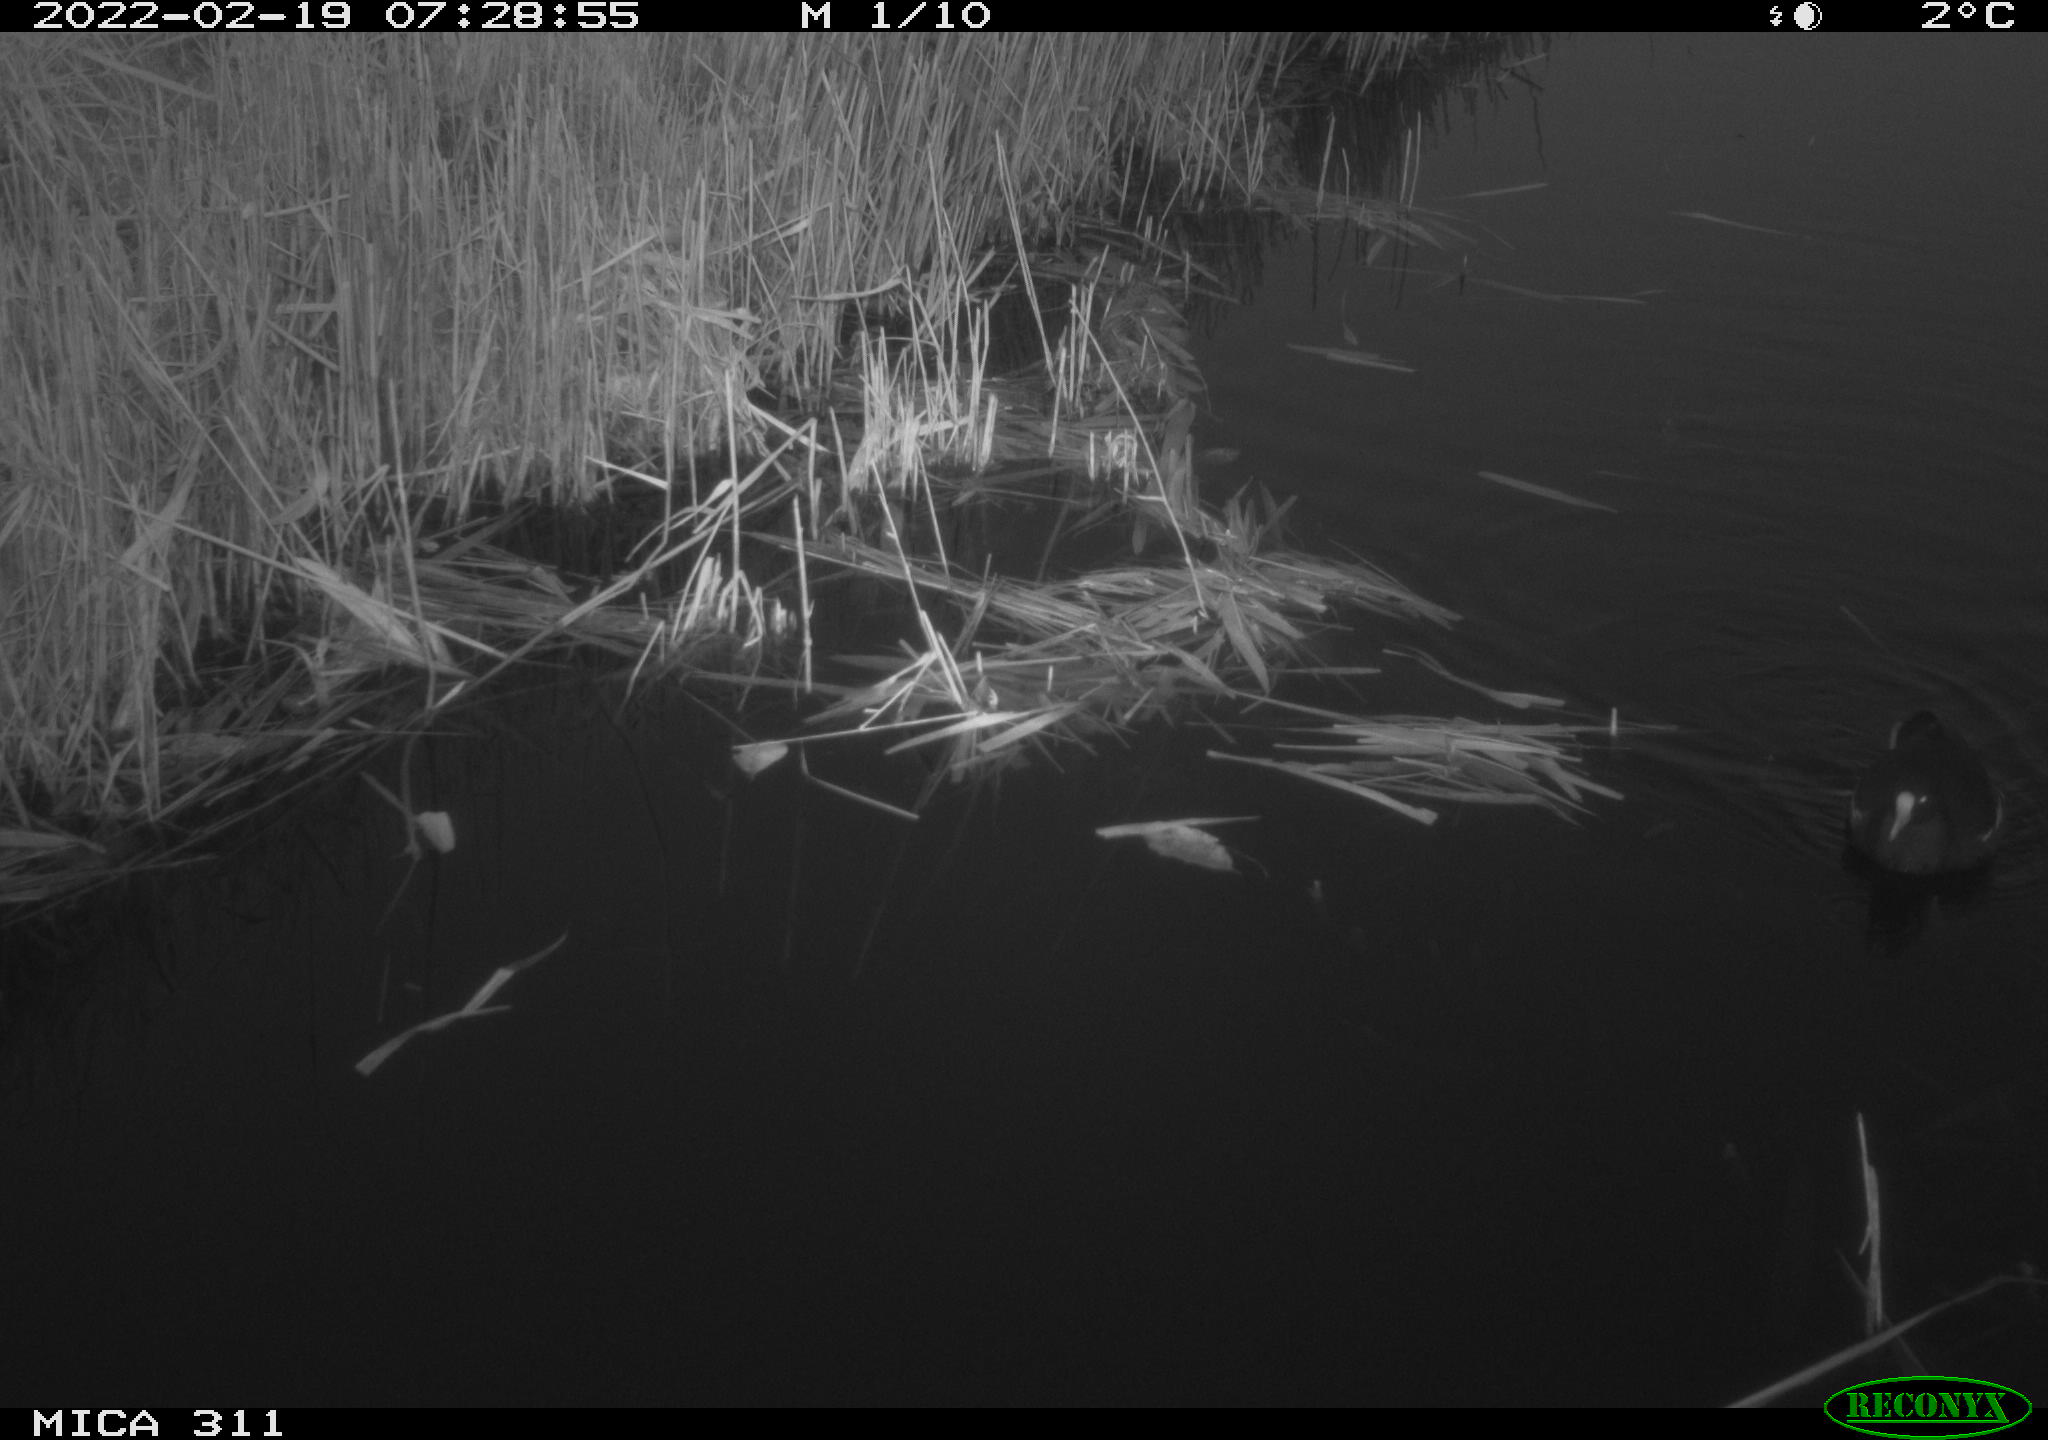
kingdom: Animalia
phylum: Chordata
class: Aves
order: Gruiformes
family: Rallidae
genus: Gallinula
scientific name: Gallinula chloropus
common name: Common moorhen
